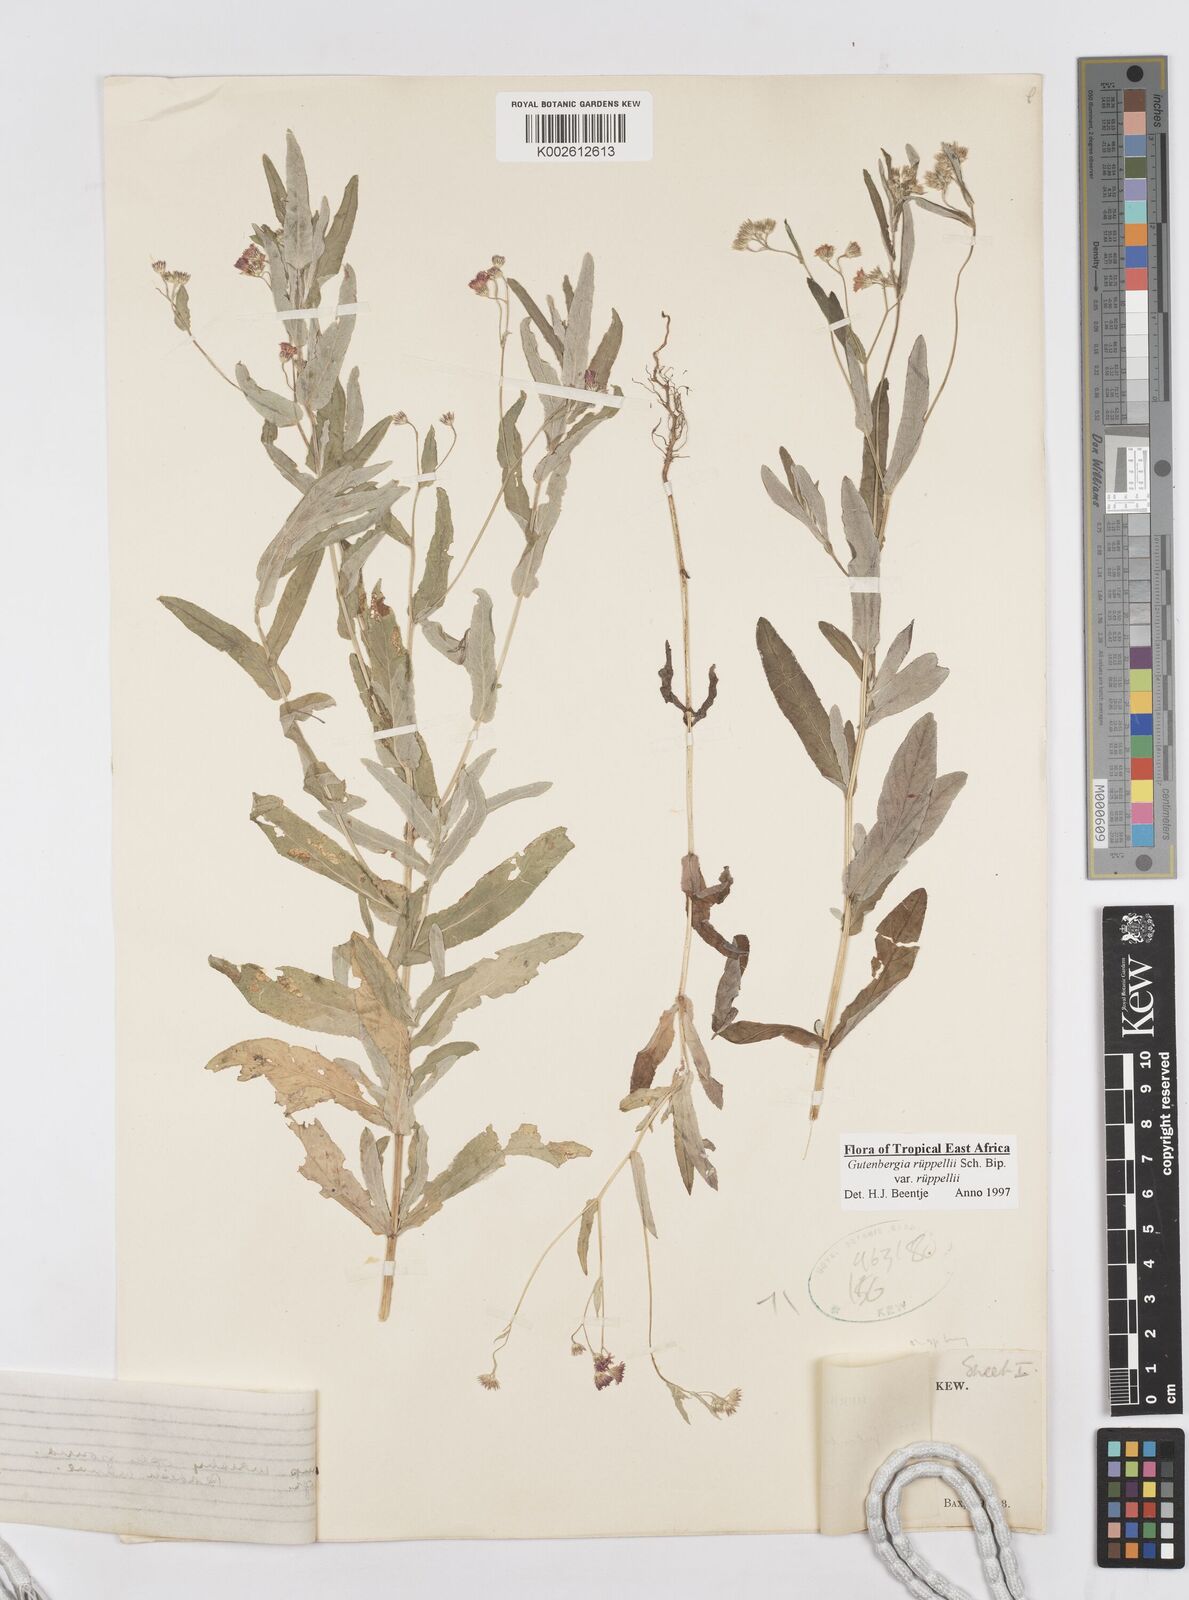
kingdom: Plantae
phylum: Tracheophyta
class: Magnoliopsida
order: Asterales
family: Asteraceae
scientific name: Asteraceae
